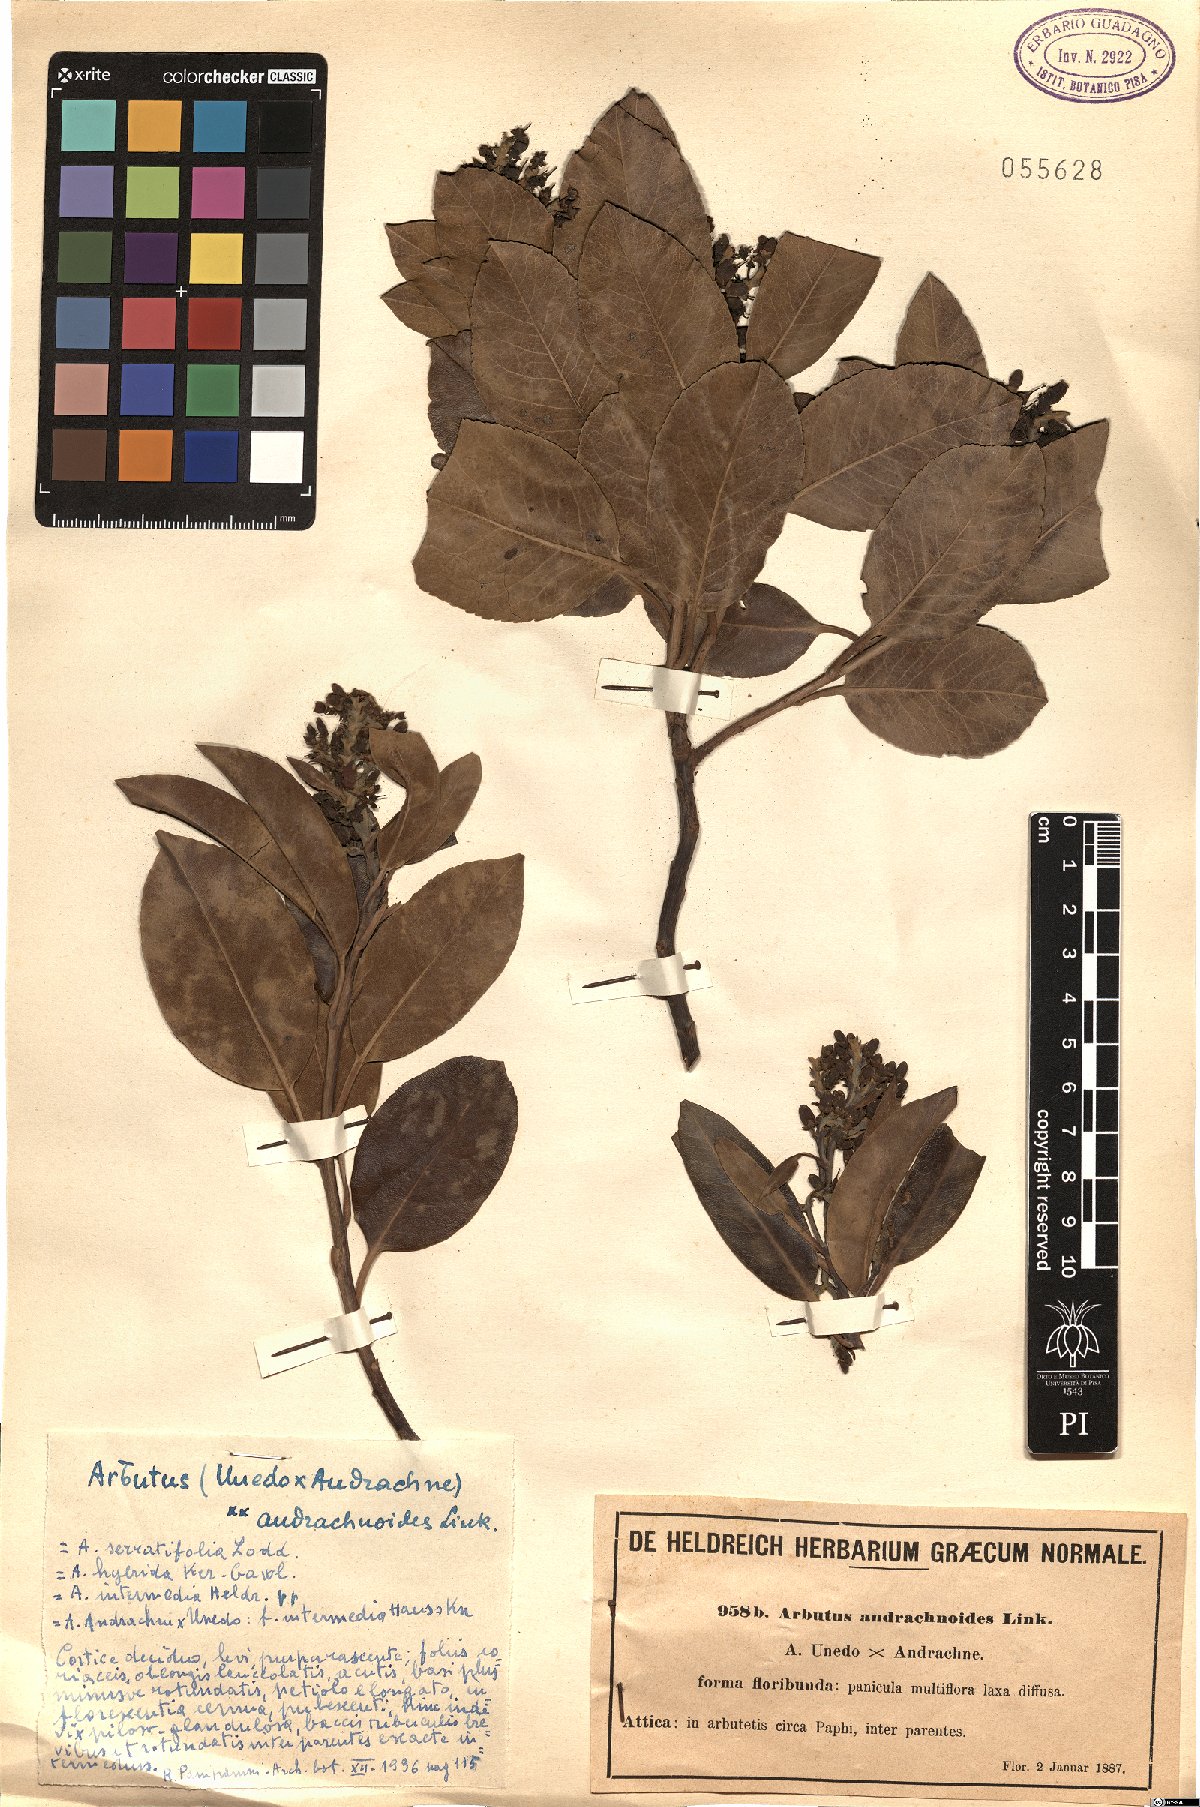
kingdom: Plantae
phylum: Tracheophyta
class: Magnoliopsida
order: Ericales
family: Ericaceae
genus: Arbutus
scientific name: Arbutus andrachnoides
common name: Hybrid strawberry-tree
